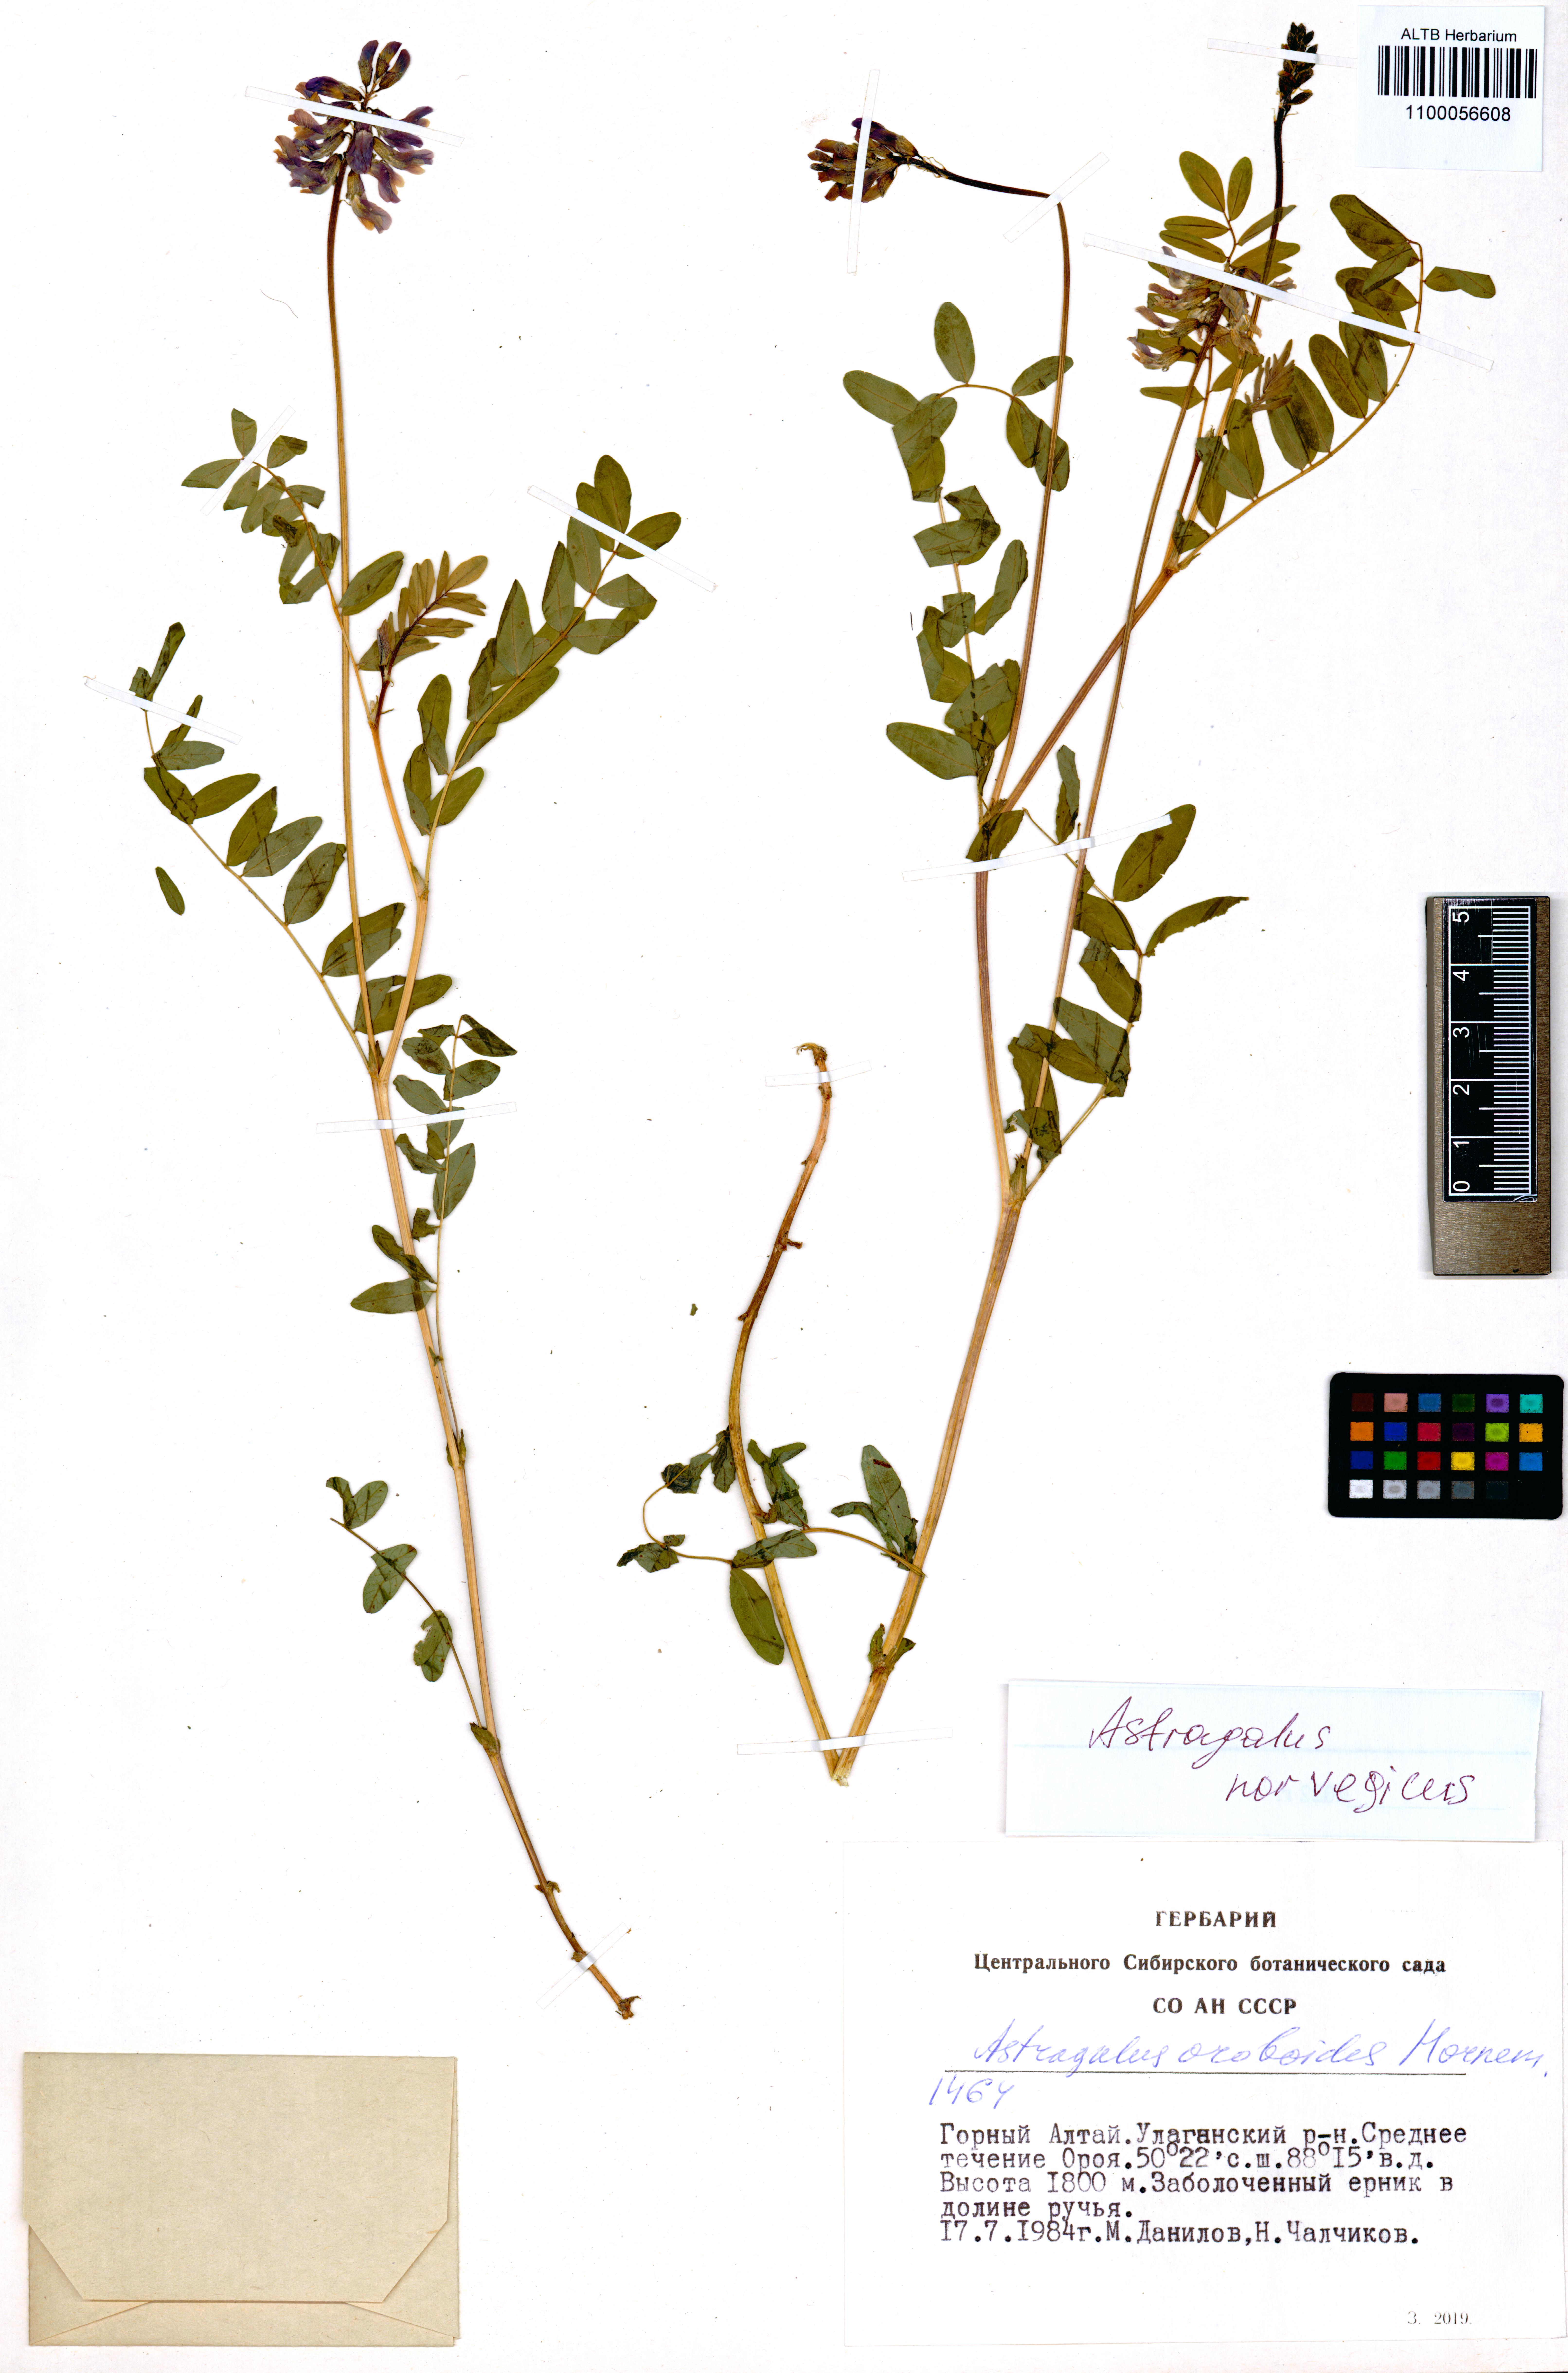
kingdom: Plantae
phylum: Tracheophyta
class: Magnoliopsida
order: Fabales
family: Fabaceae
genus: Caragana
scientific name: Caragana arborescens
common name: Siberian peashrub
